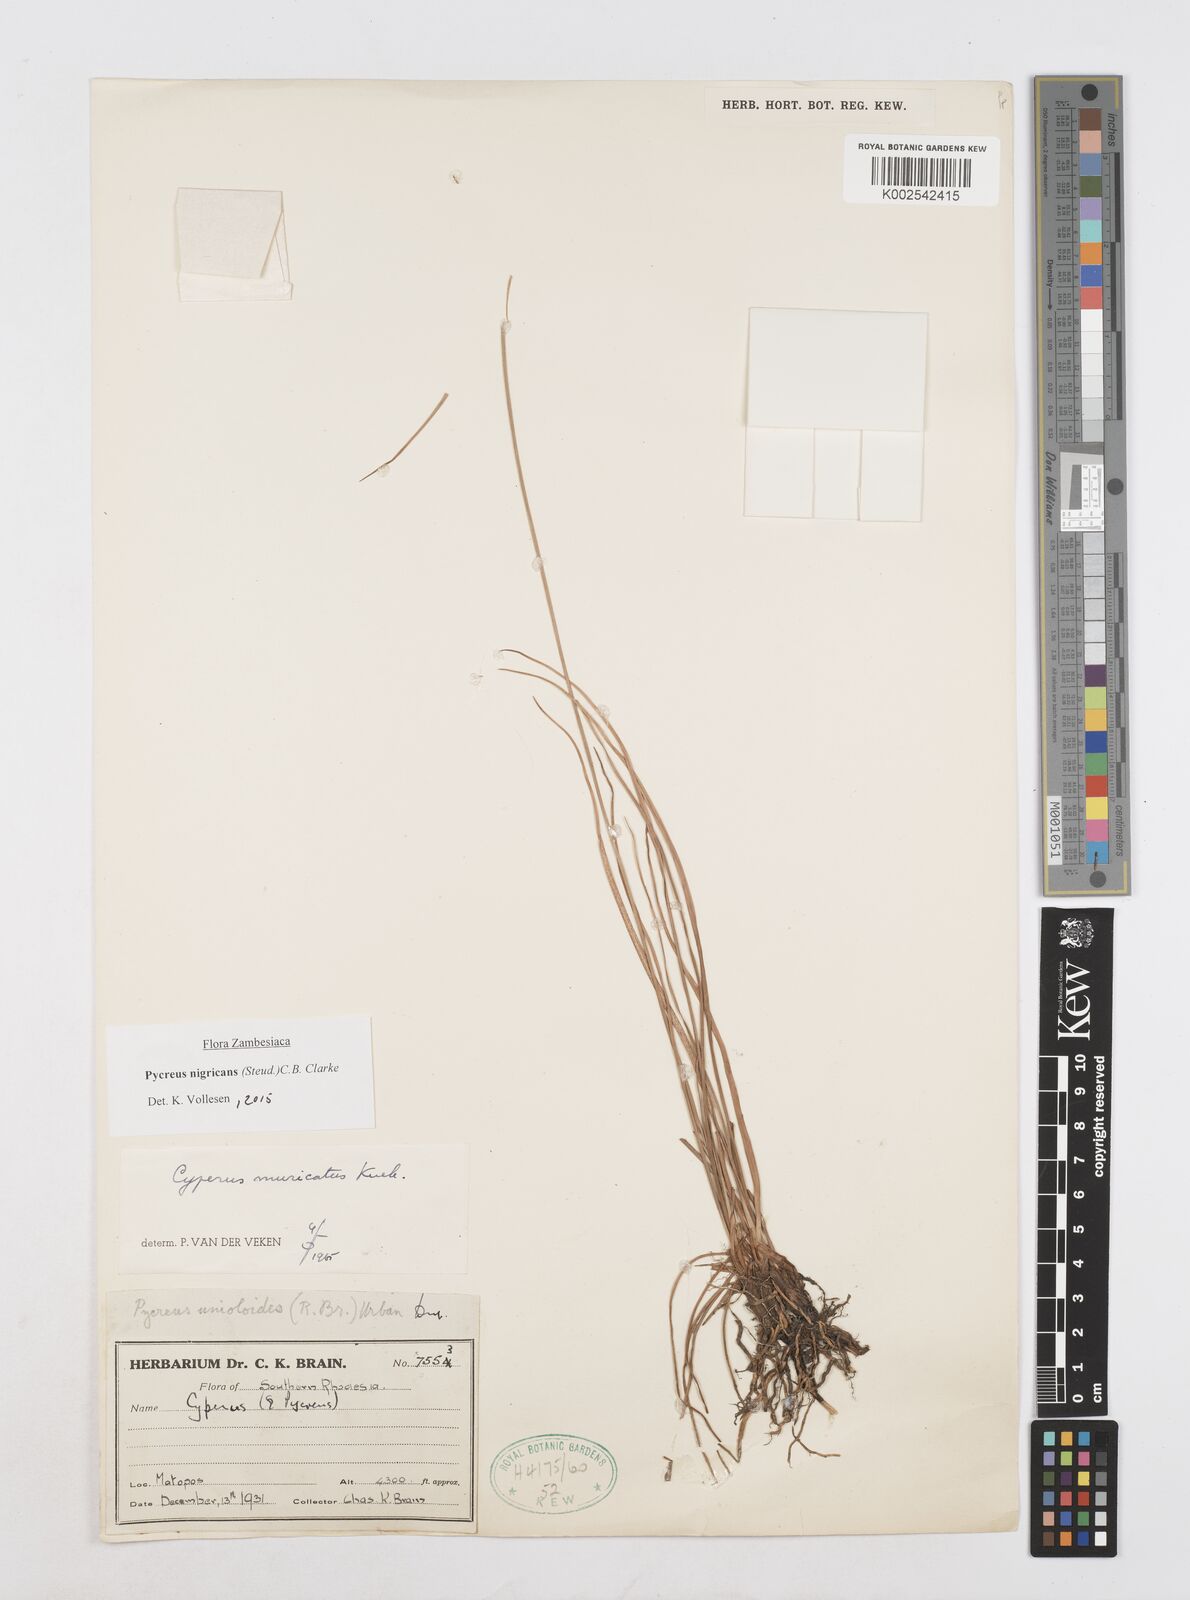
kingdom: Plantae
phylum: Tracheophyta
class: Liliopsida
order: Poales
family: Cyperaceae
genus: Cyperus
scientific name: Cyperus nigricans
